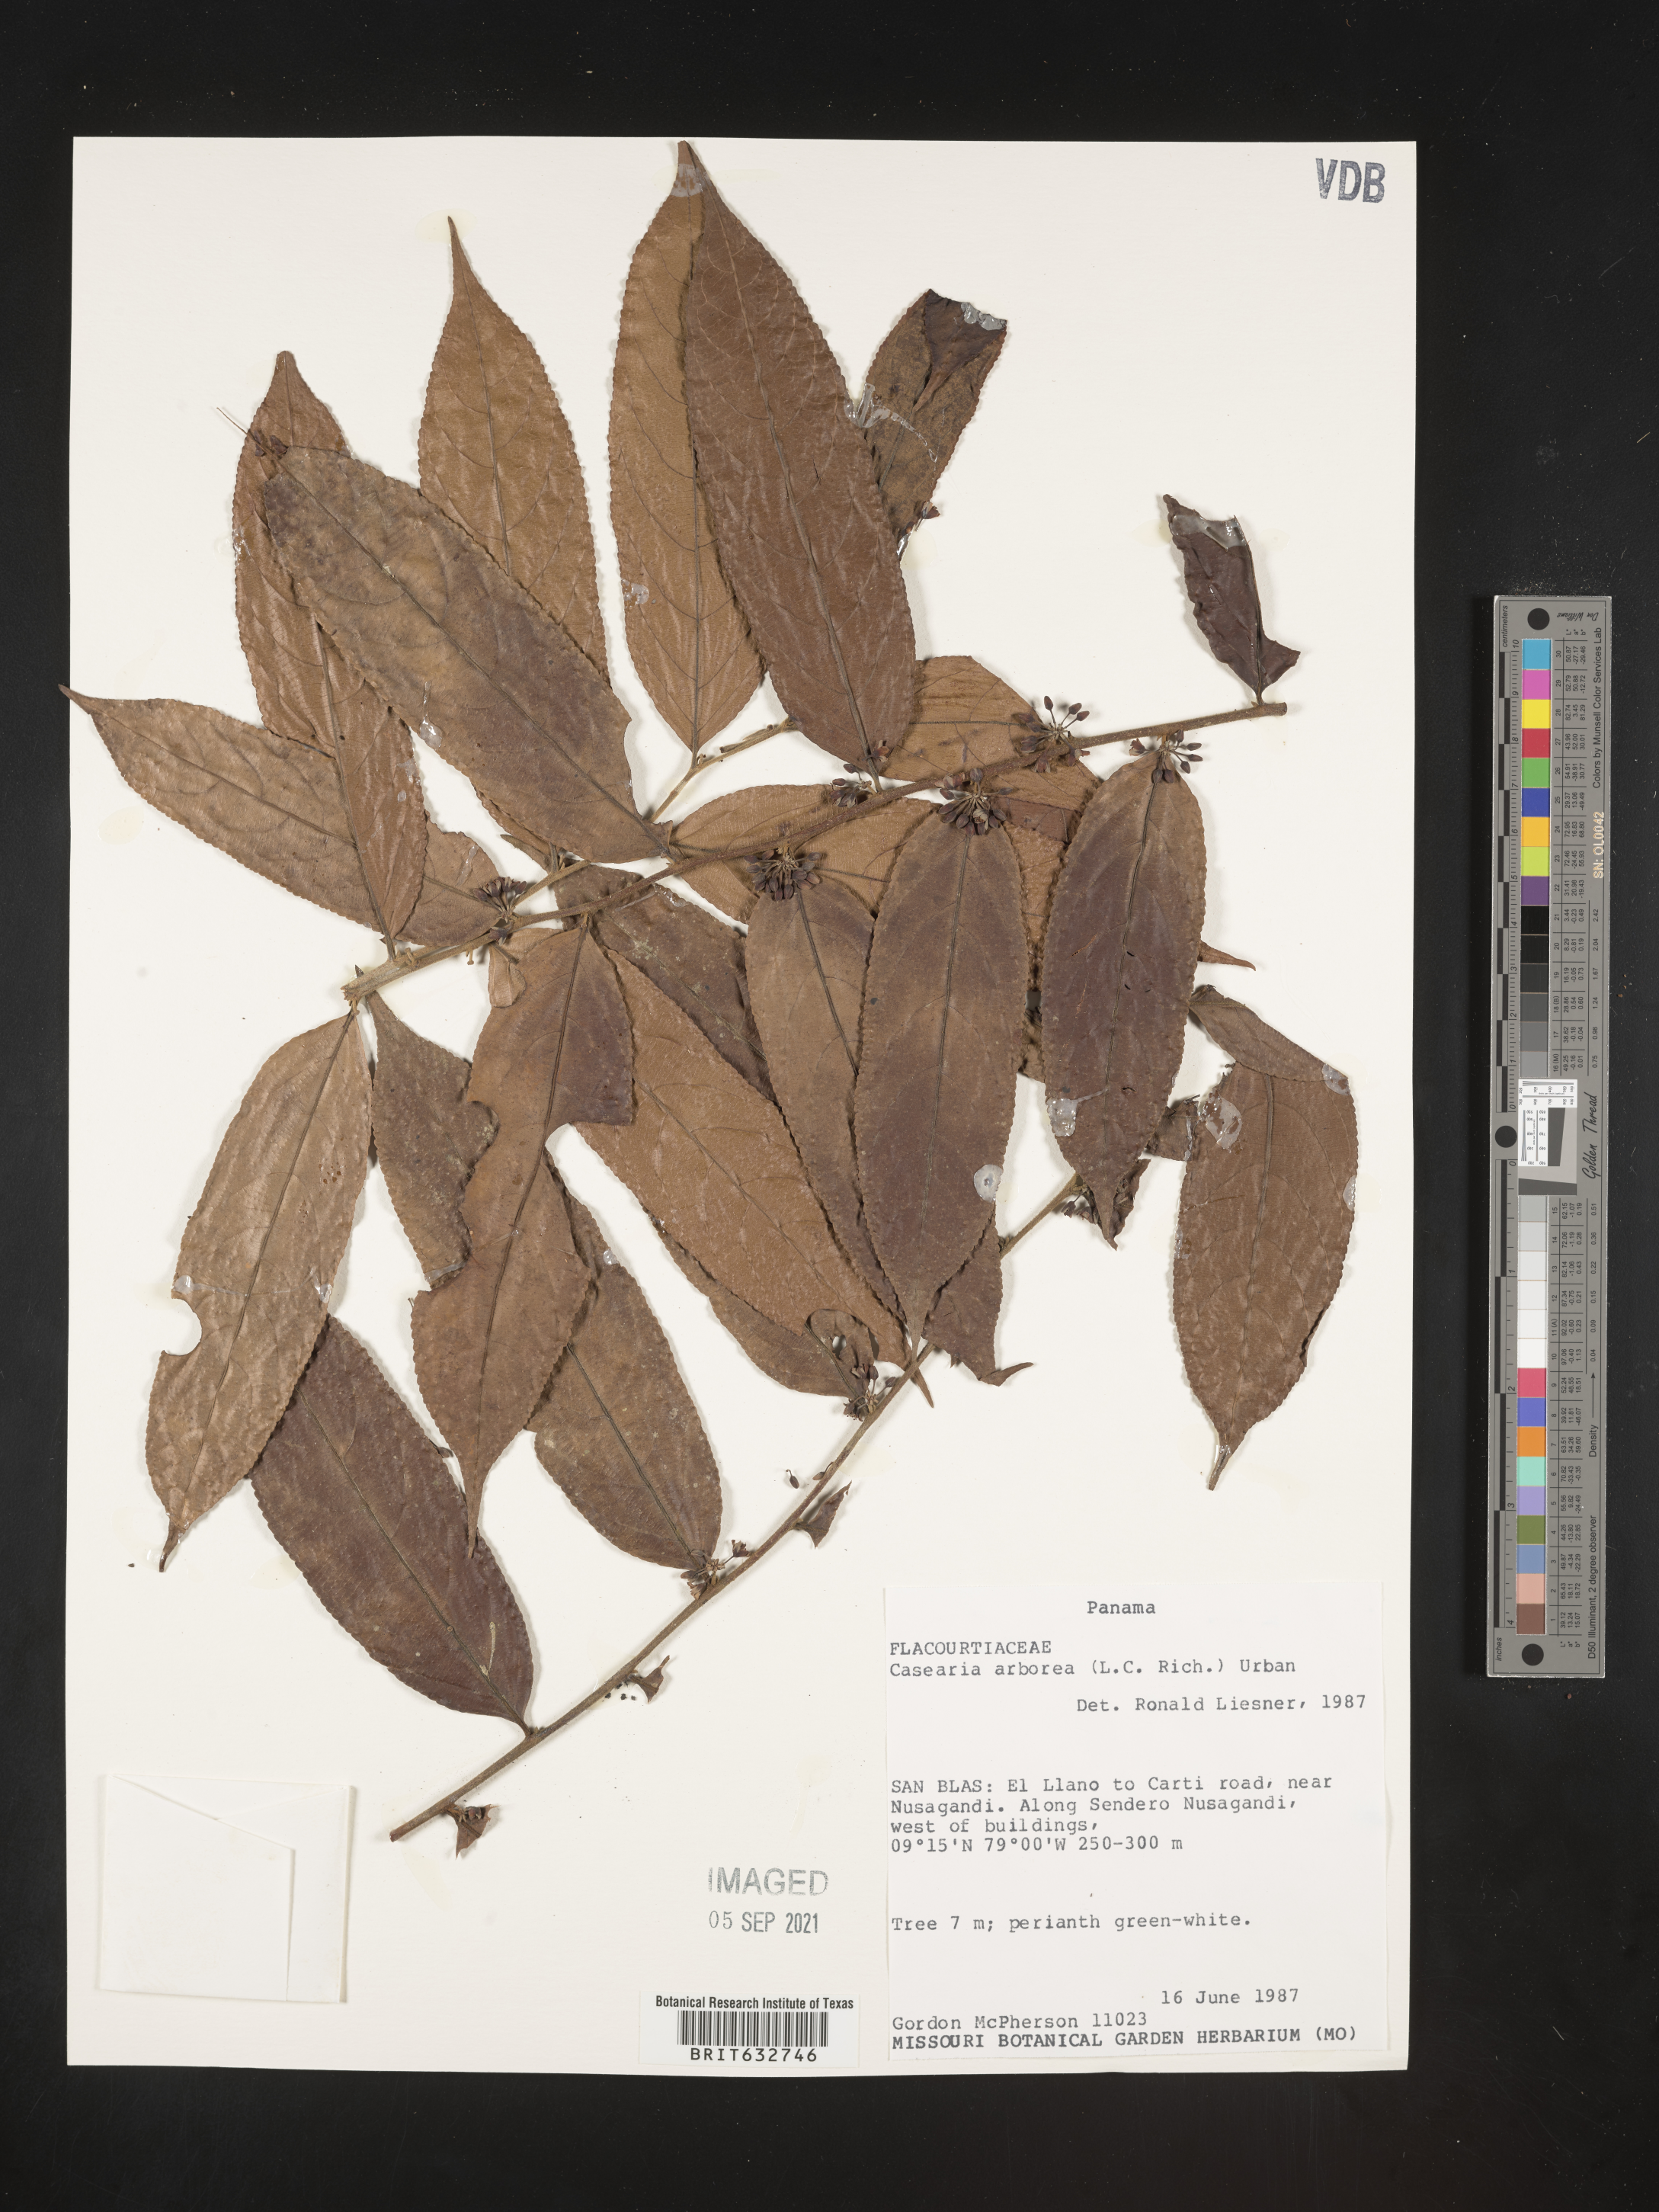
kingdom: Plantae
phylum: Tracheophyta
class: Magnoliopsida
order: Malpighiales
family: Salicaceae
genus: Casearia
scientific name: Casearia
